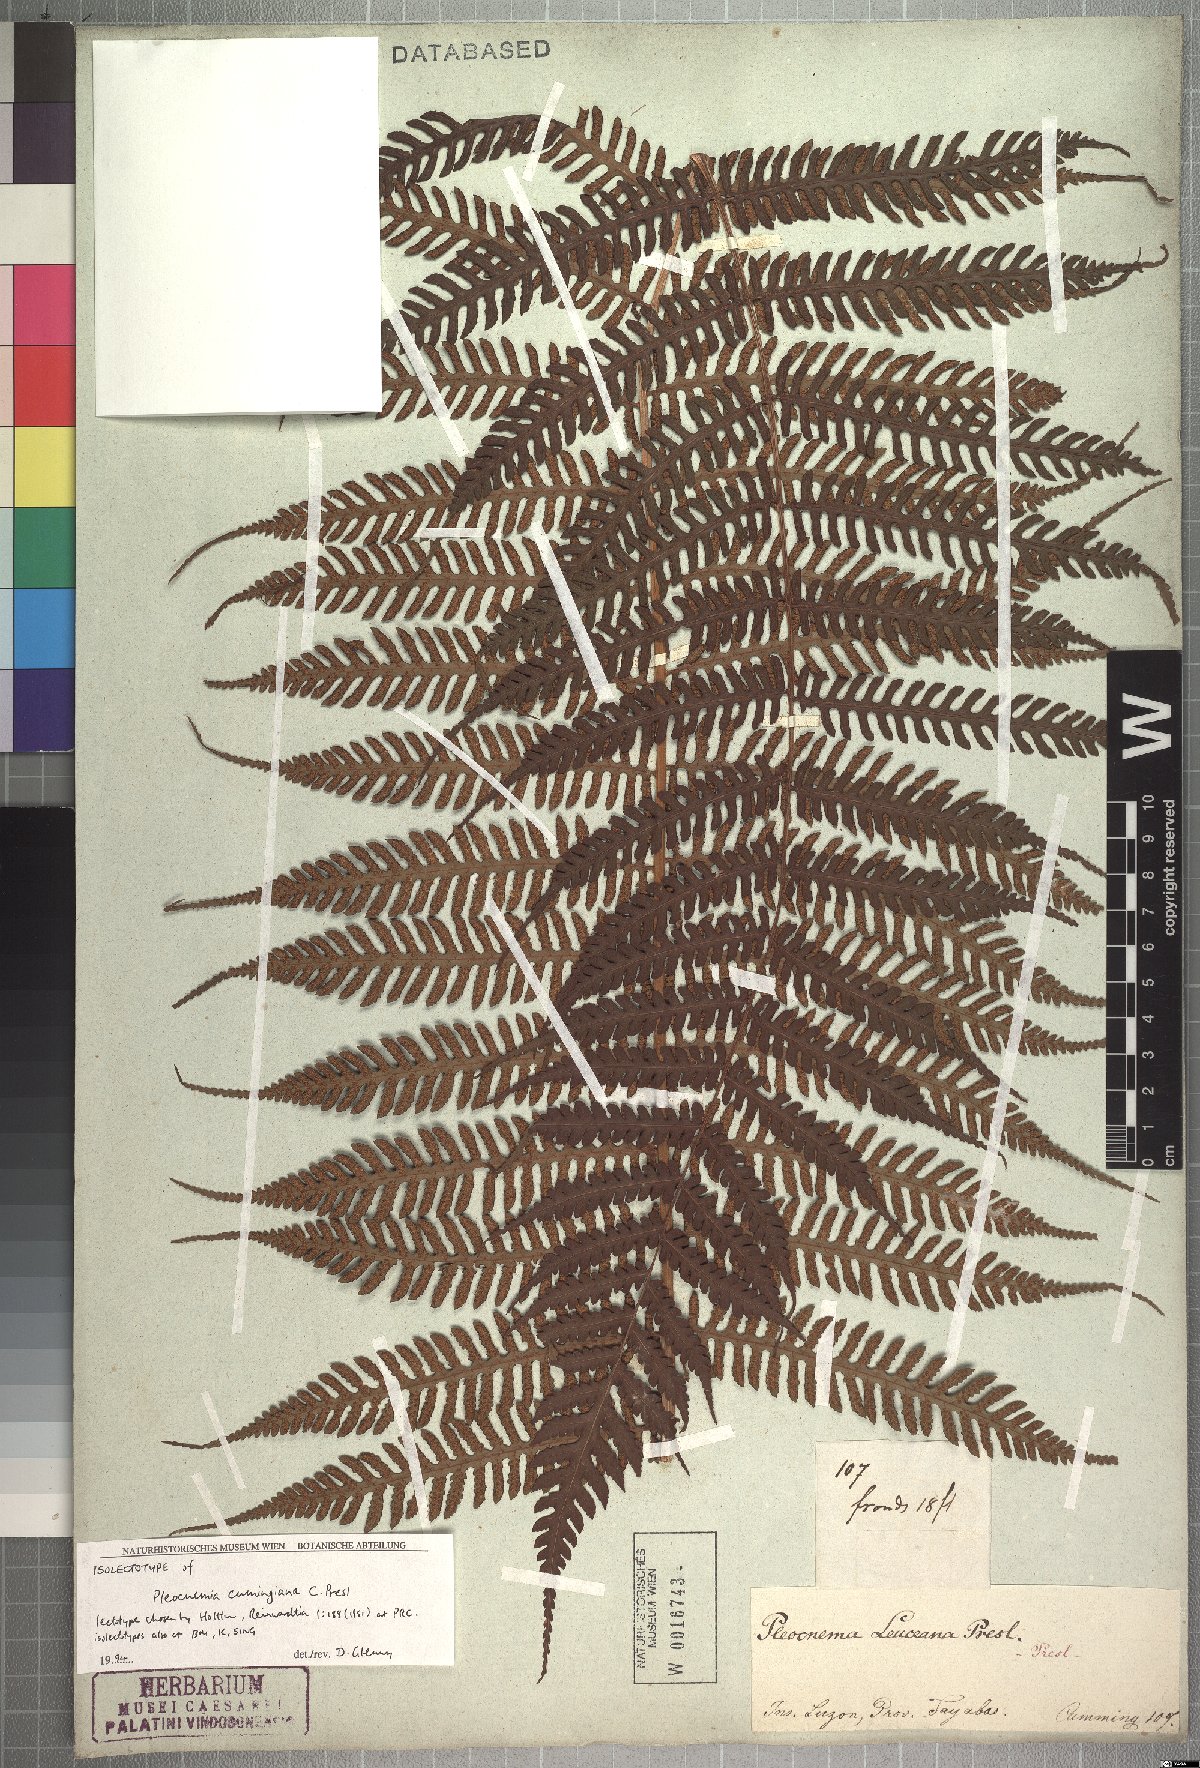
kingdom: Plantae
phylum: Tracheophyta
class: Polypodiopsida
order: Polypodiales
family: Dryopteridaceae
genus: Pleocnemia
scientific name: Pleocnemia cumingiana
